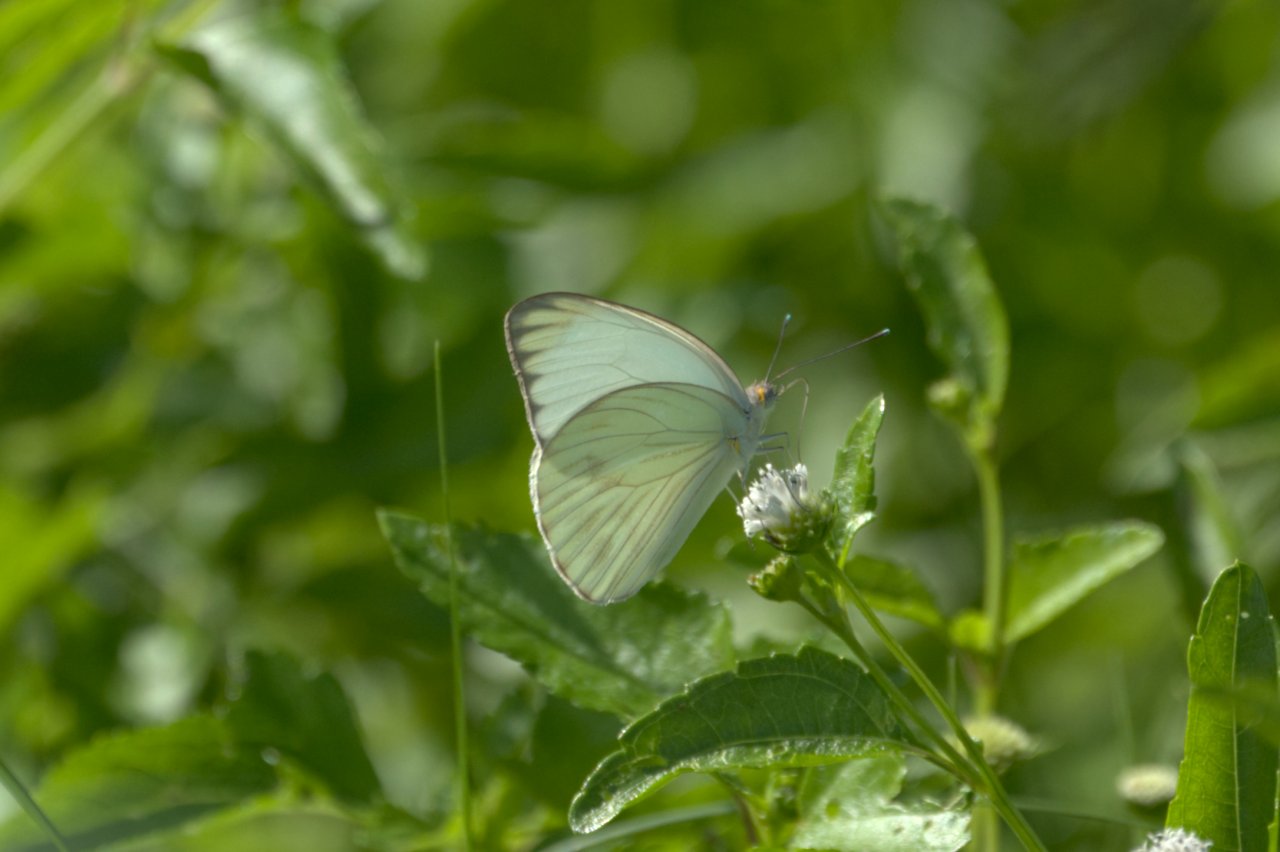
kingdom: Animalia
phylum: Arthropoda
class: Insecta
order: Lepidoptera
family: Pieridae
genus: Ascia
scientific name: Ascia monuste
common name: Great Southern White
